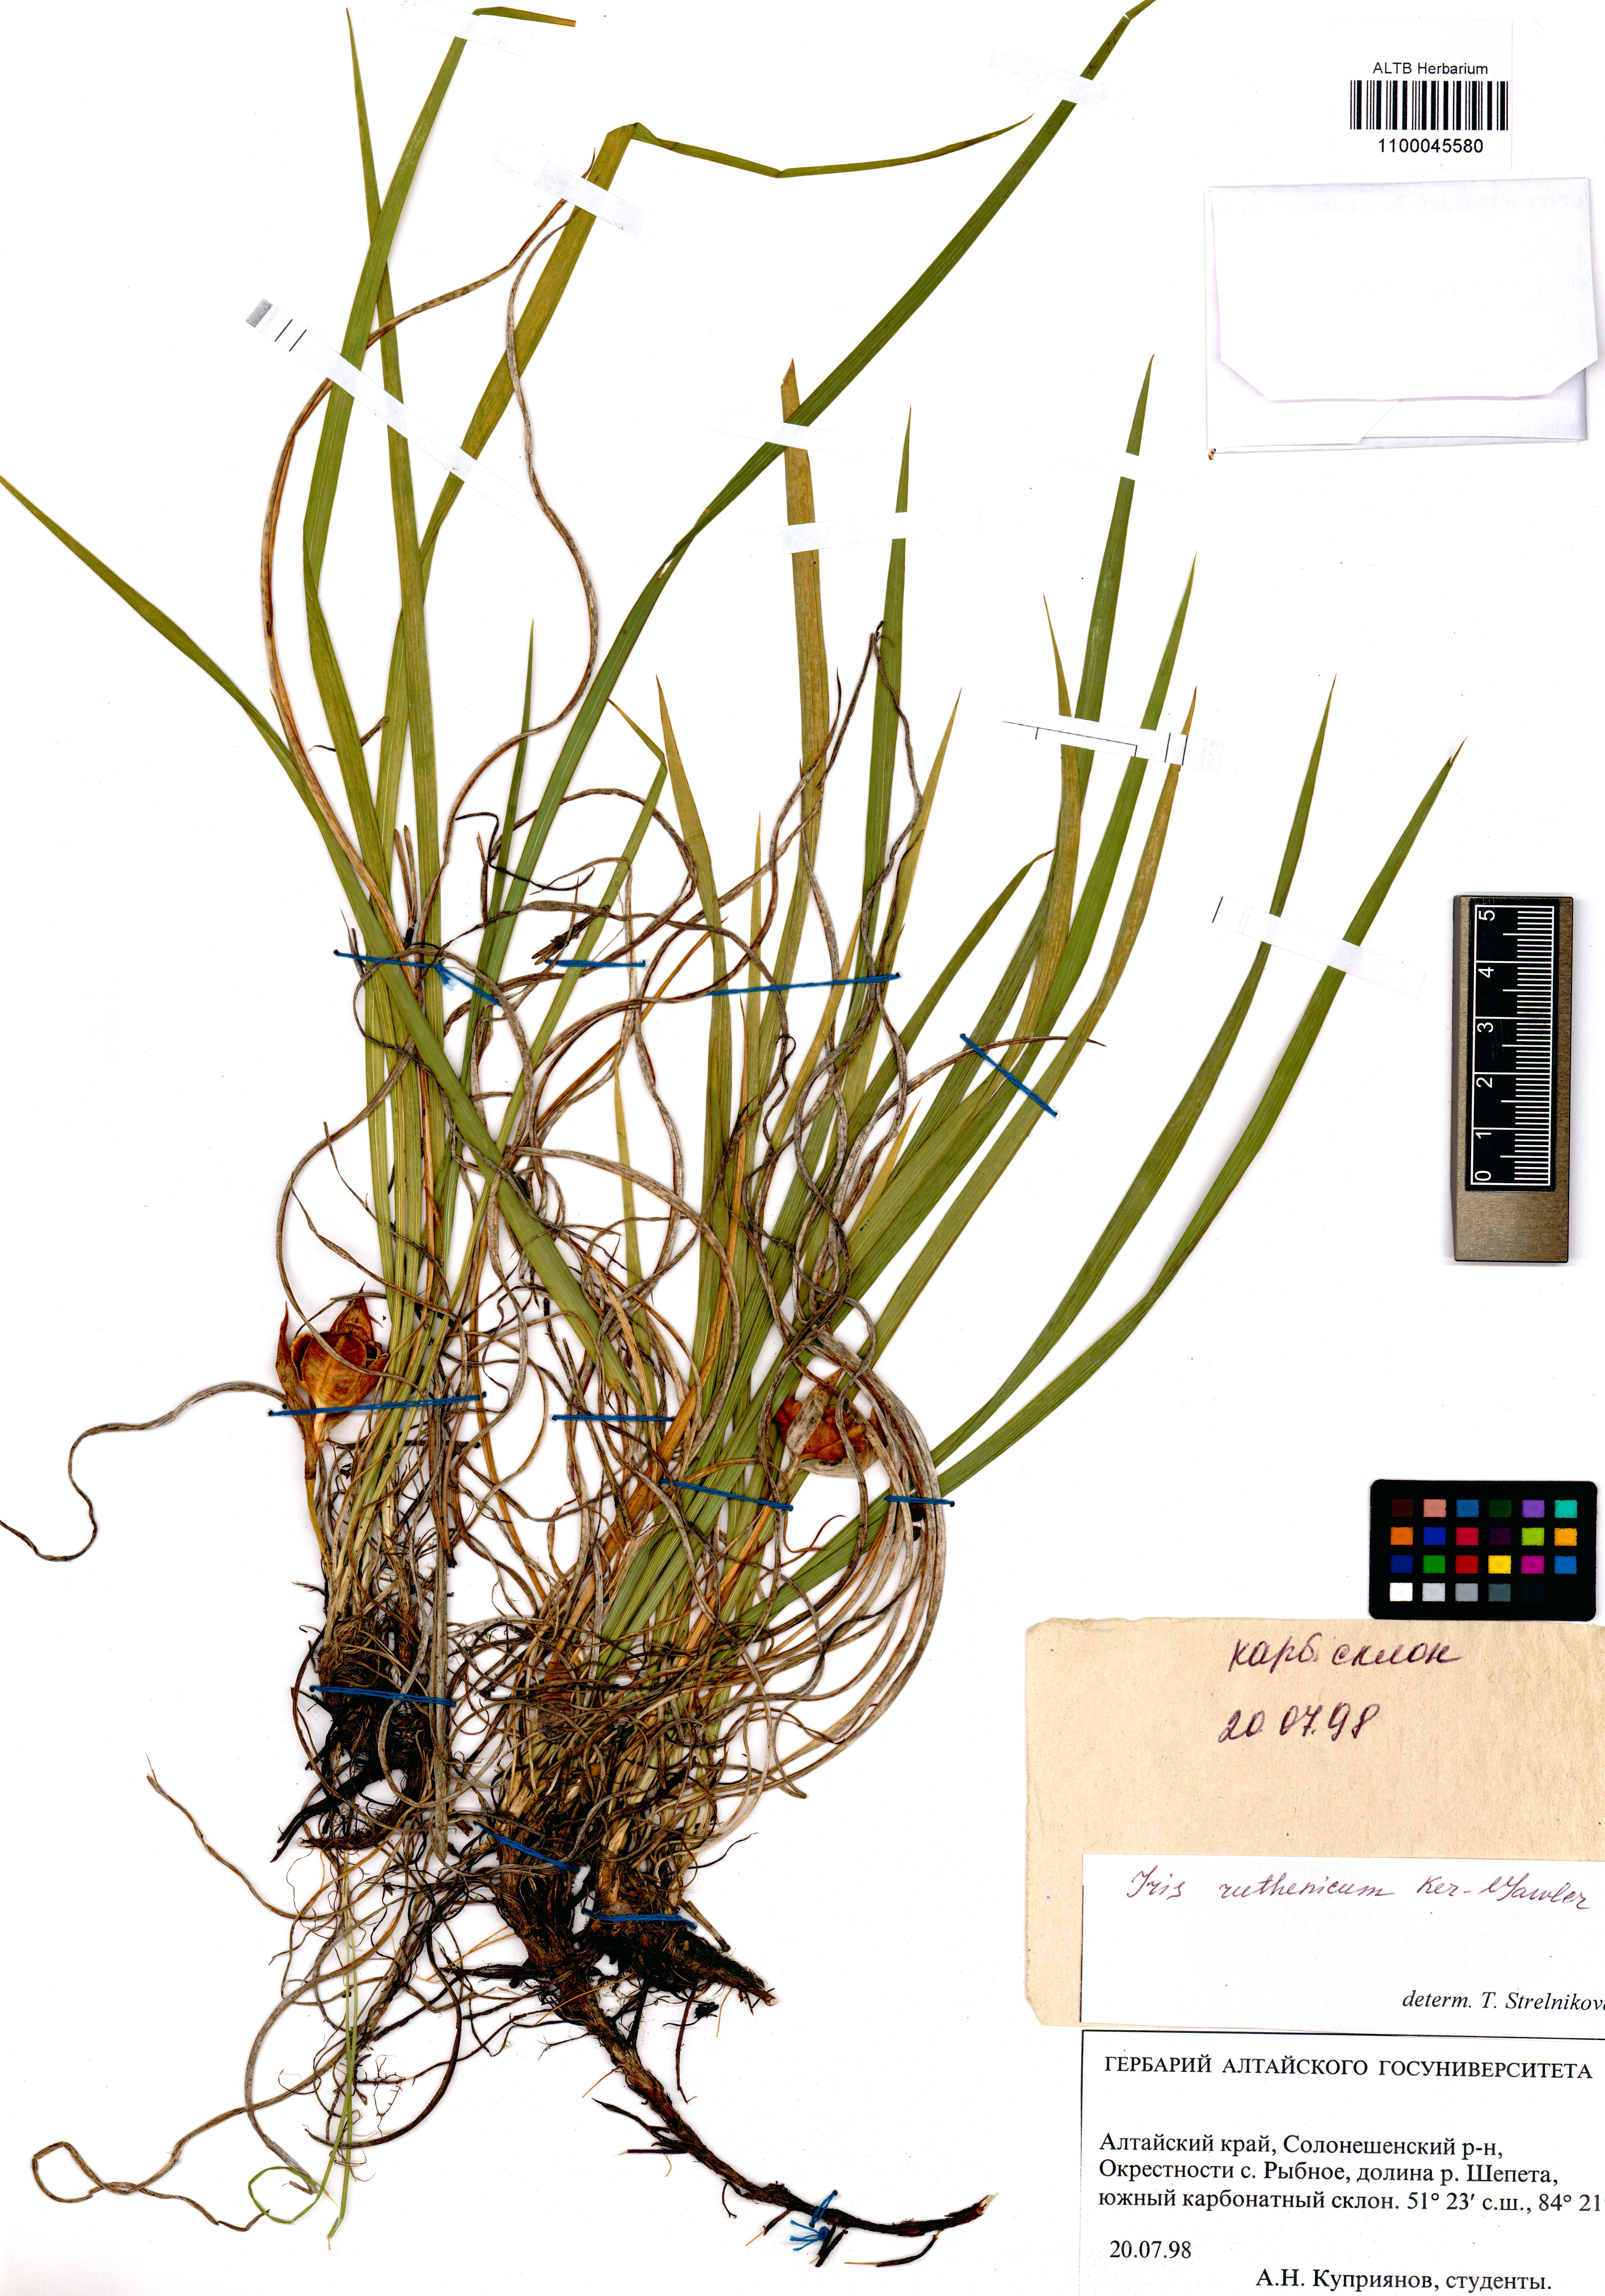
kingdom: Plantae
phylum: Tracheophyta
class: Liliopsida
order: Asparagales
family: Iridaceae
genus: Iris
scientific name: Iris ruthenica
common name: Purple-bract iris
